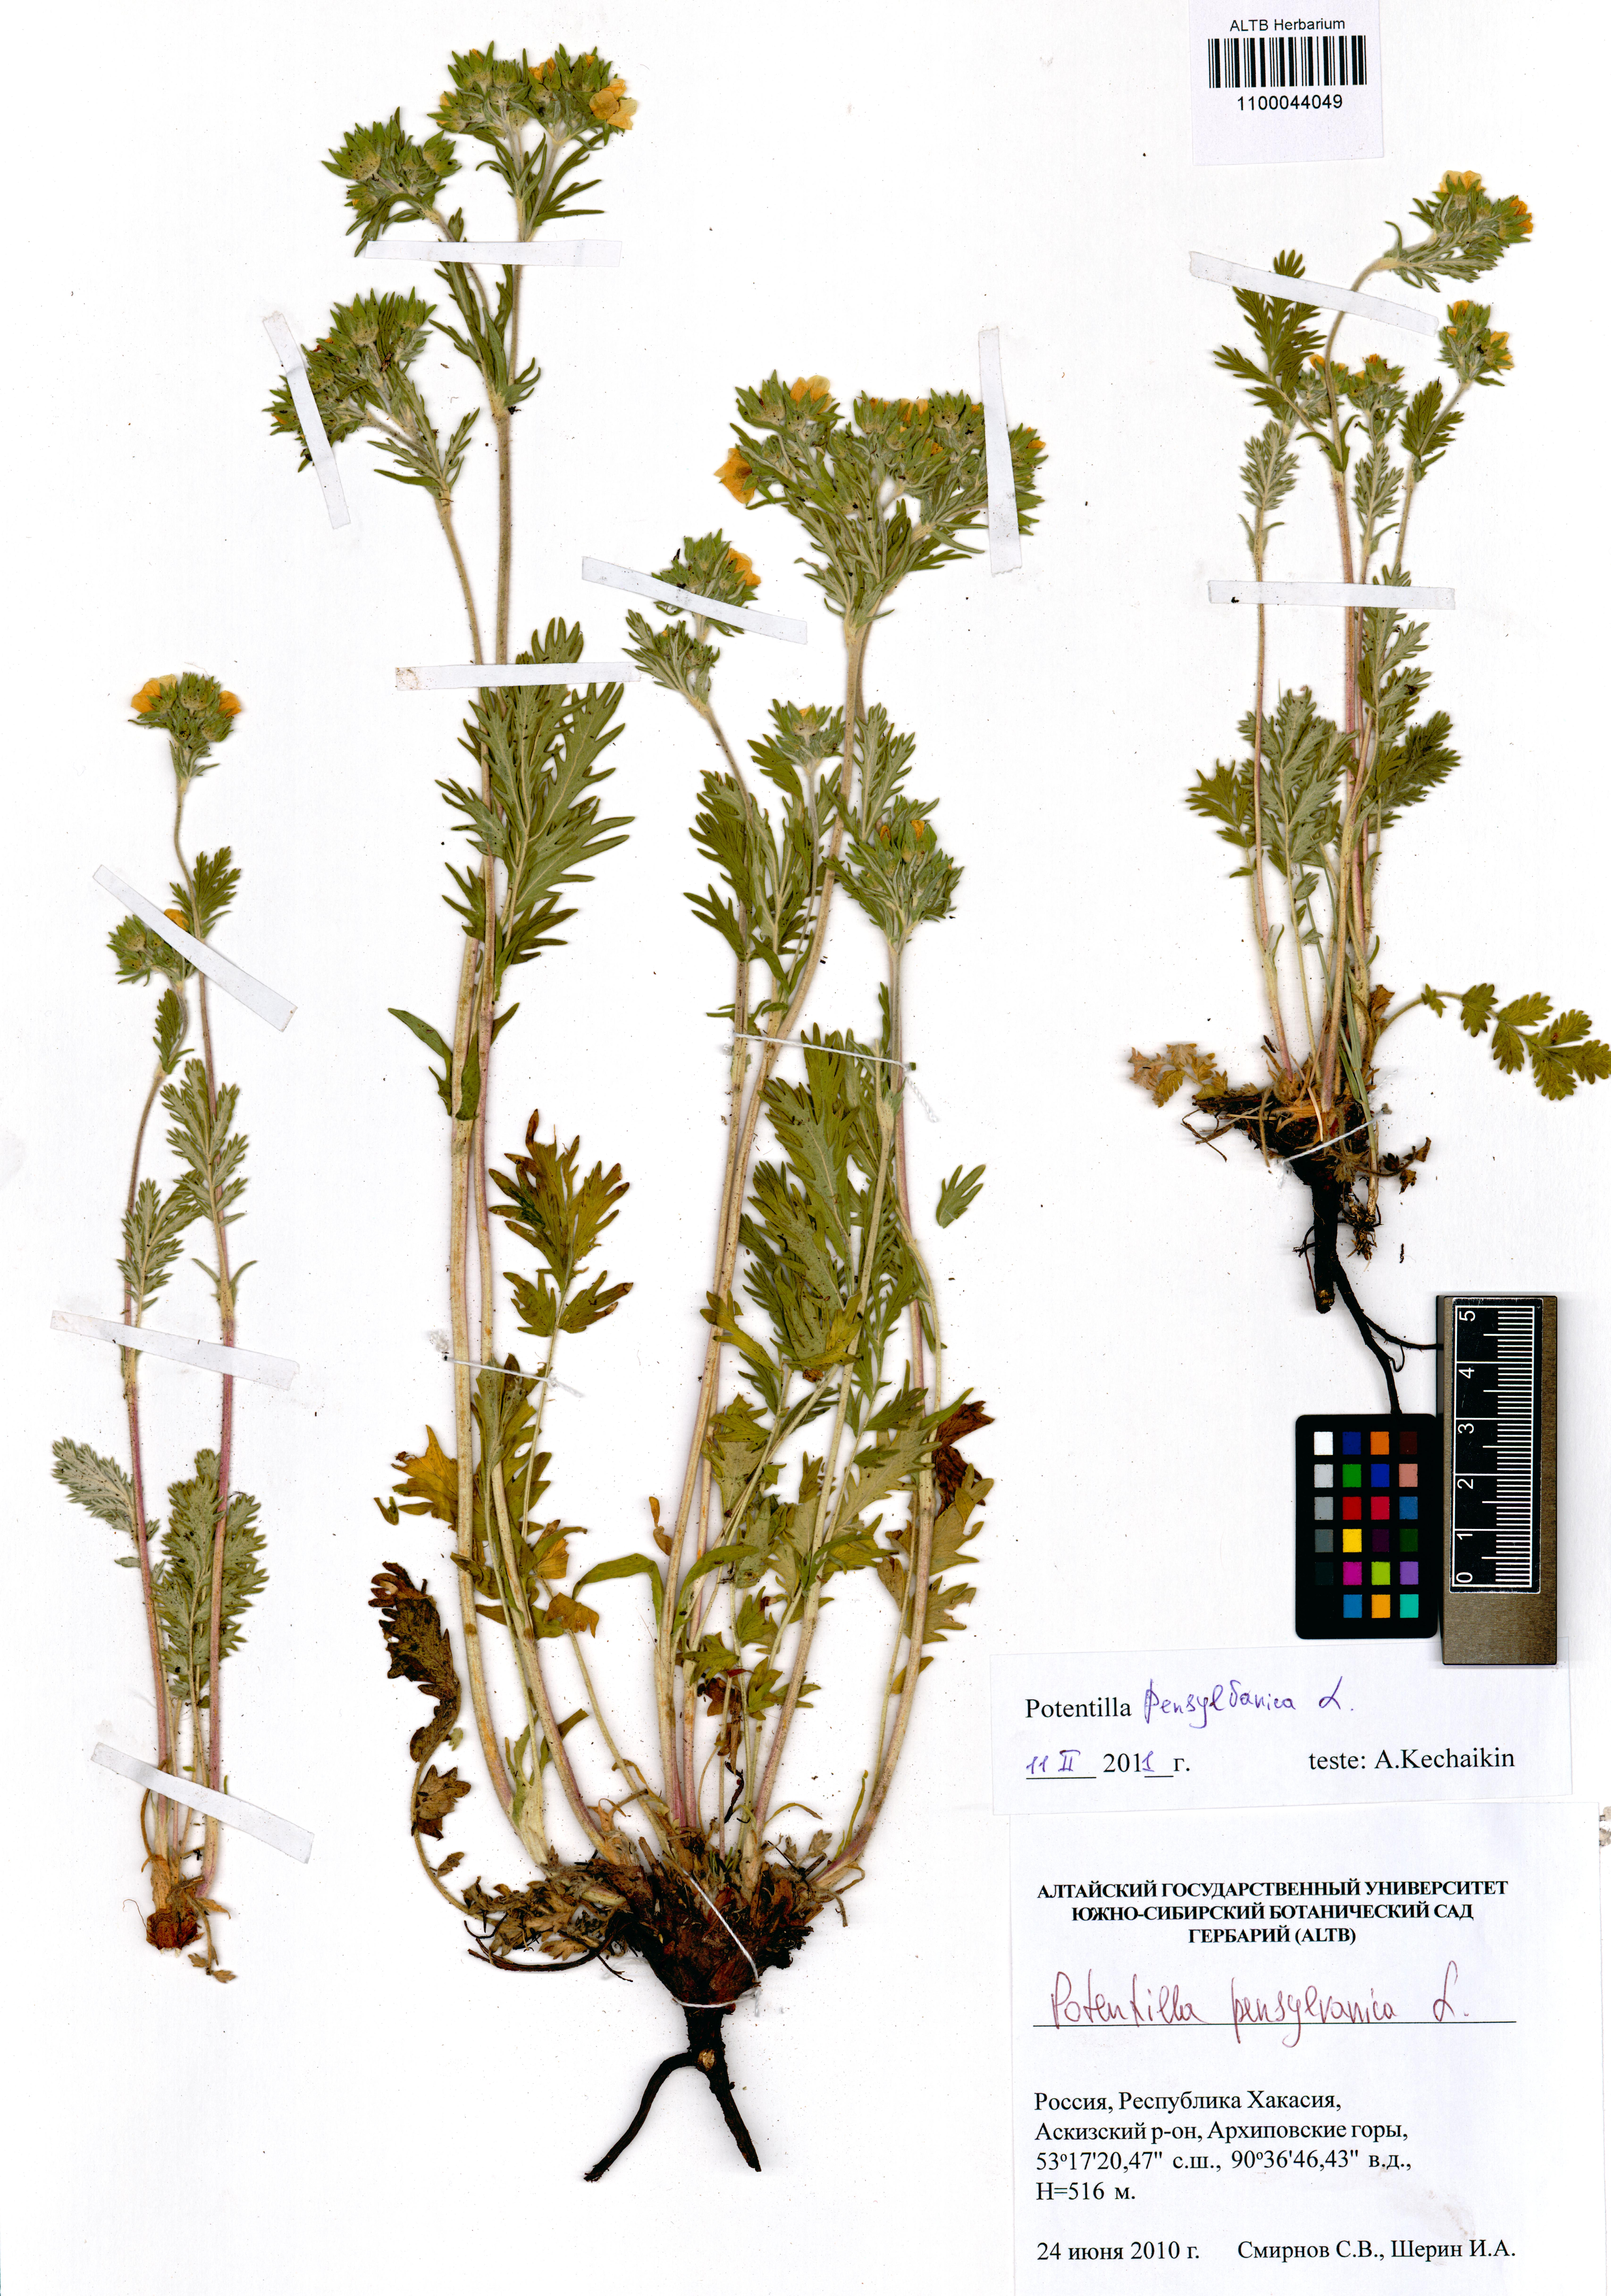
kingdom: Plantae
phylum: Tracheophyta
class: Magnoliopsida
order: Rosales
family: Rosaceae
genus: Potentilla
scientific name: Potentilla pensylvanica
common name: Pennsylvania cinquefoil
